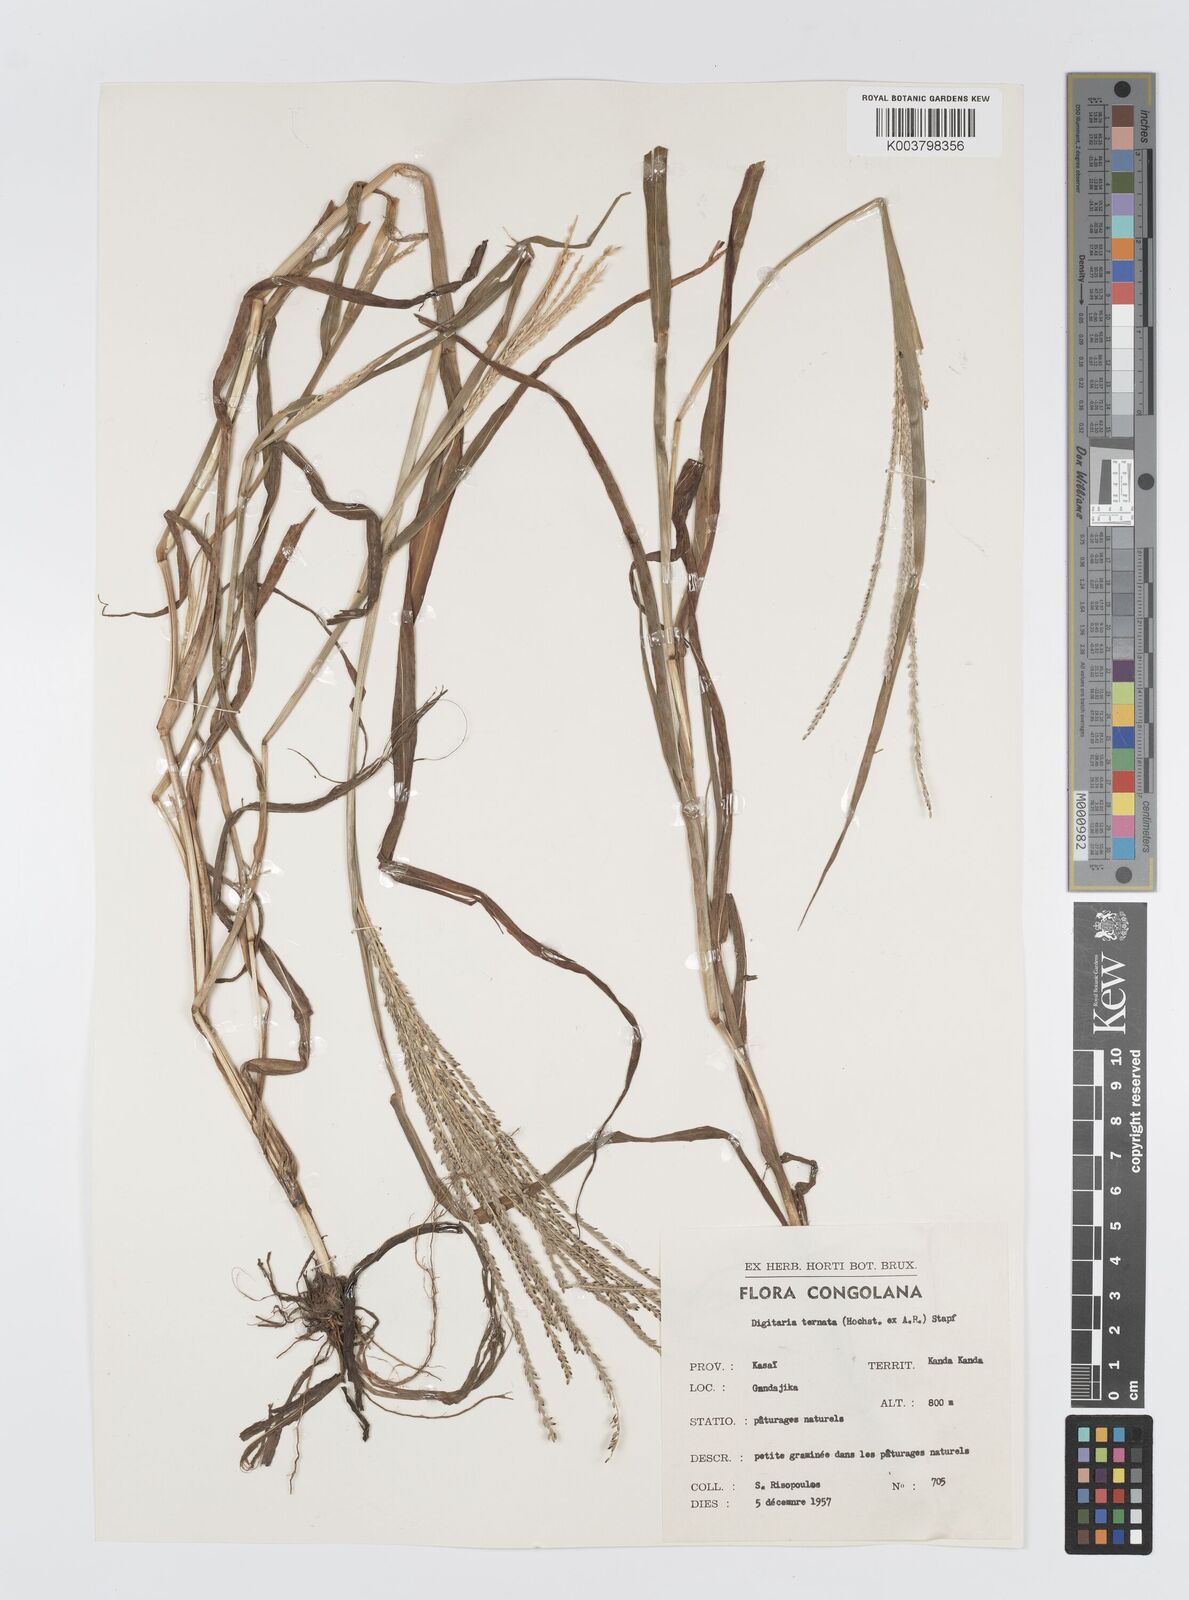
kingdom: Plantae
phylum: Tracheophyta
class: Liliopsida
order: Poales
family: Poaceae
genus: Digitaria
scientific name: Digitaria ternata
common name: Blackseed crabgrass
